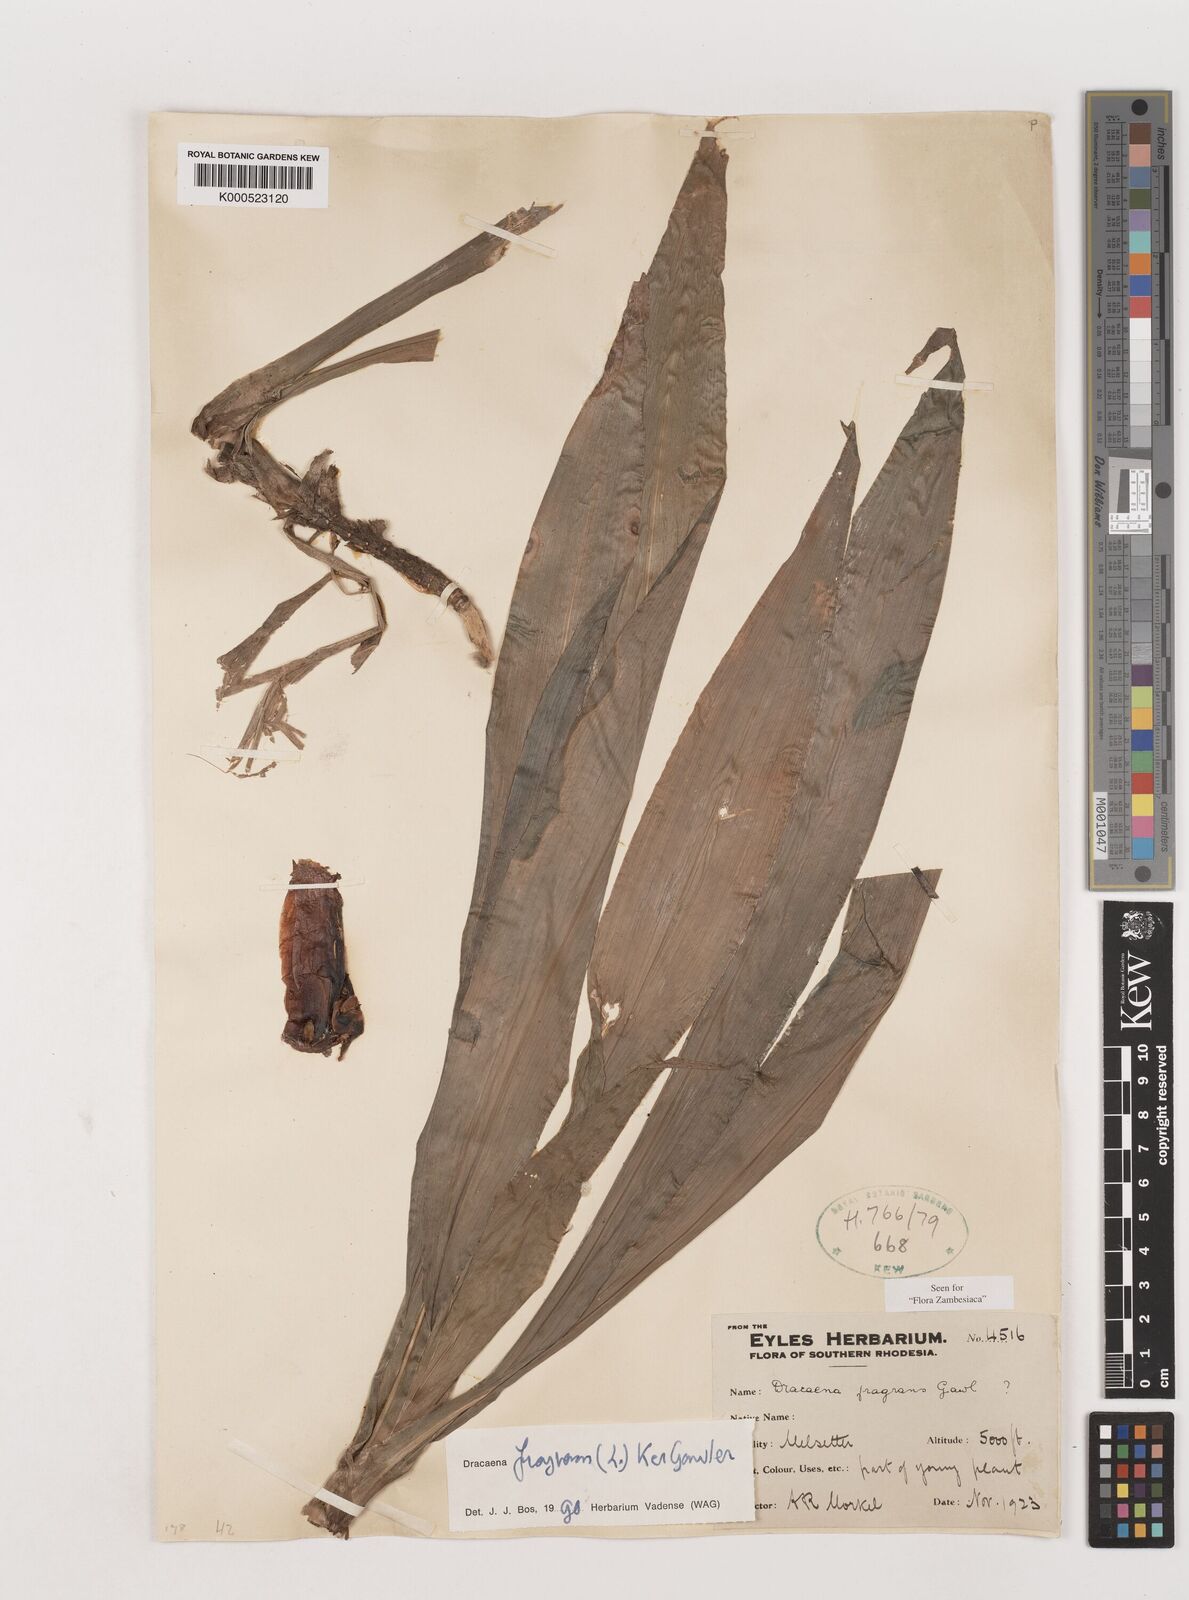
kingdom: Plantae
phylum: Tracheophyta
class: Liliopsida
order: Asparagales
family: Asparagaceae
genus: Dracaena
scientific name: Dracaena fragrans
